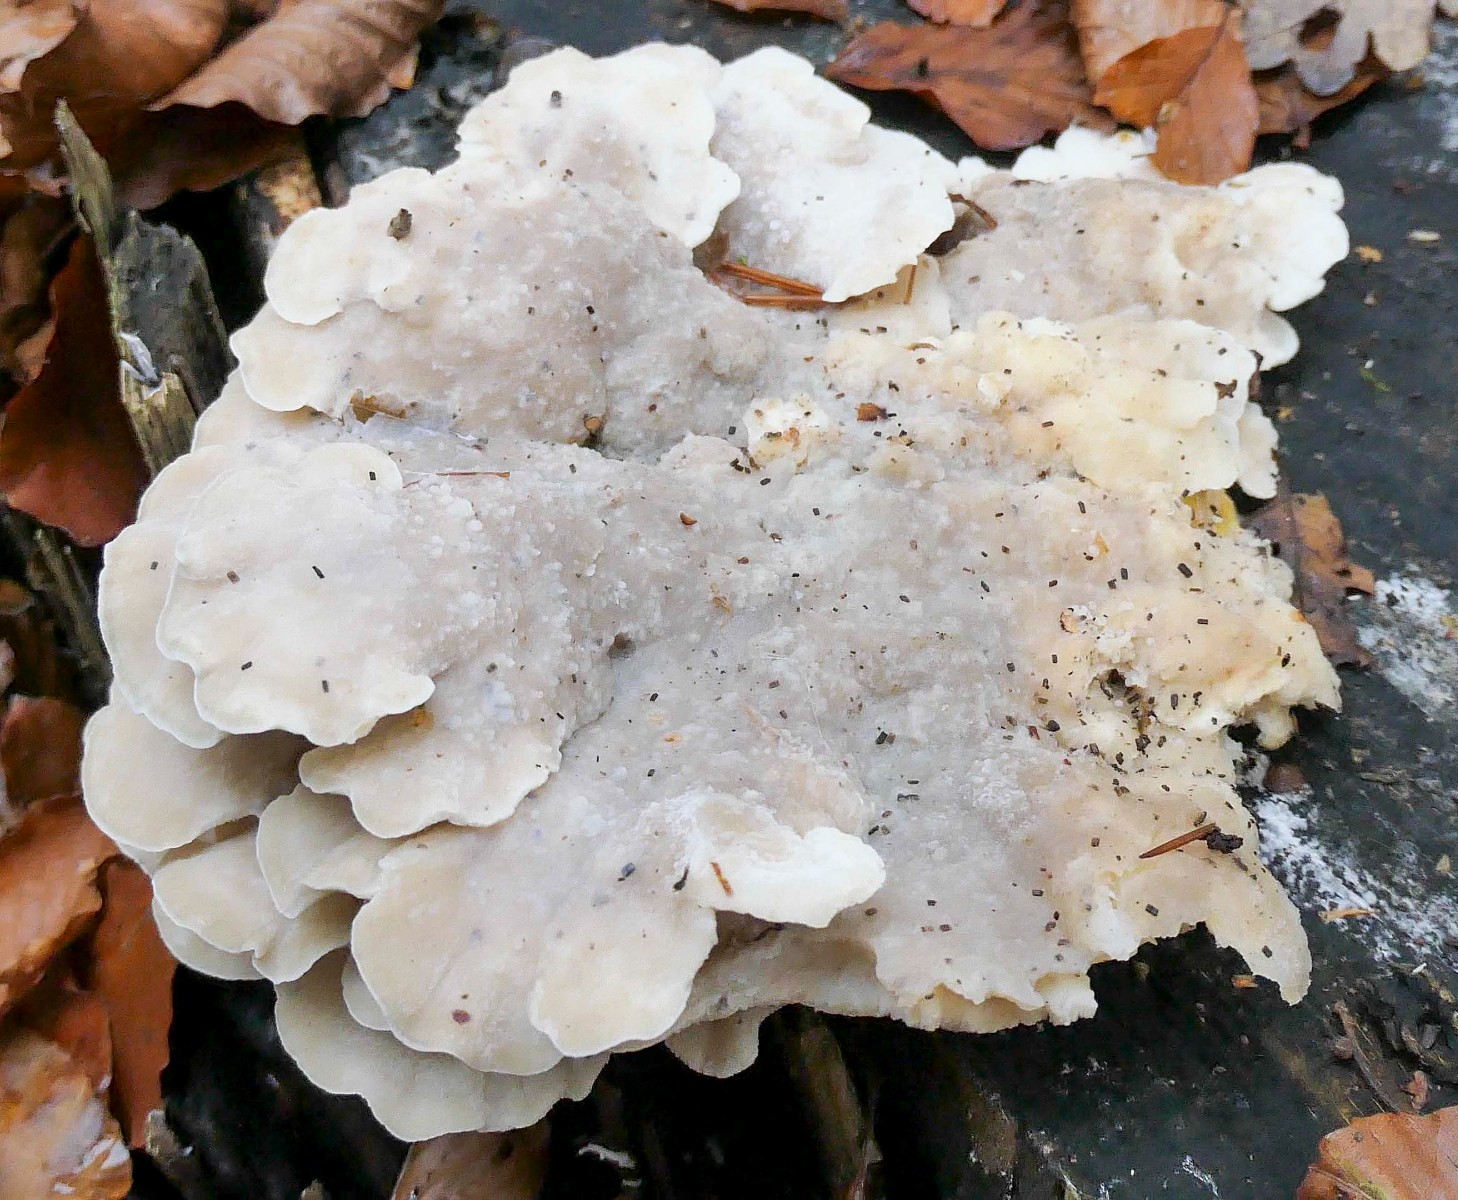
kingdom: Fungi
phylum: Basidiomycota
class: Agaricomycetes
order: Polyporales
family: Incrustoporiaceae
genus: Tyromyces
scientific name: Tyromyces lacteus
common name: mælkehvid kødporesvamp
